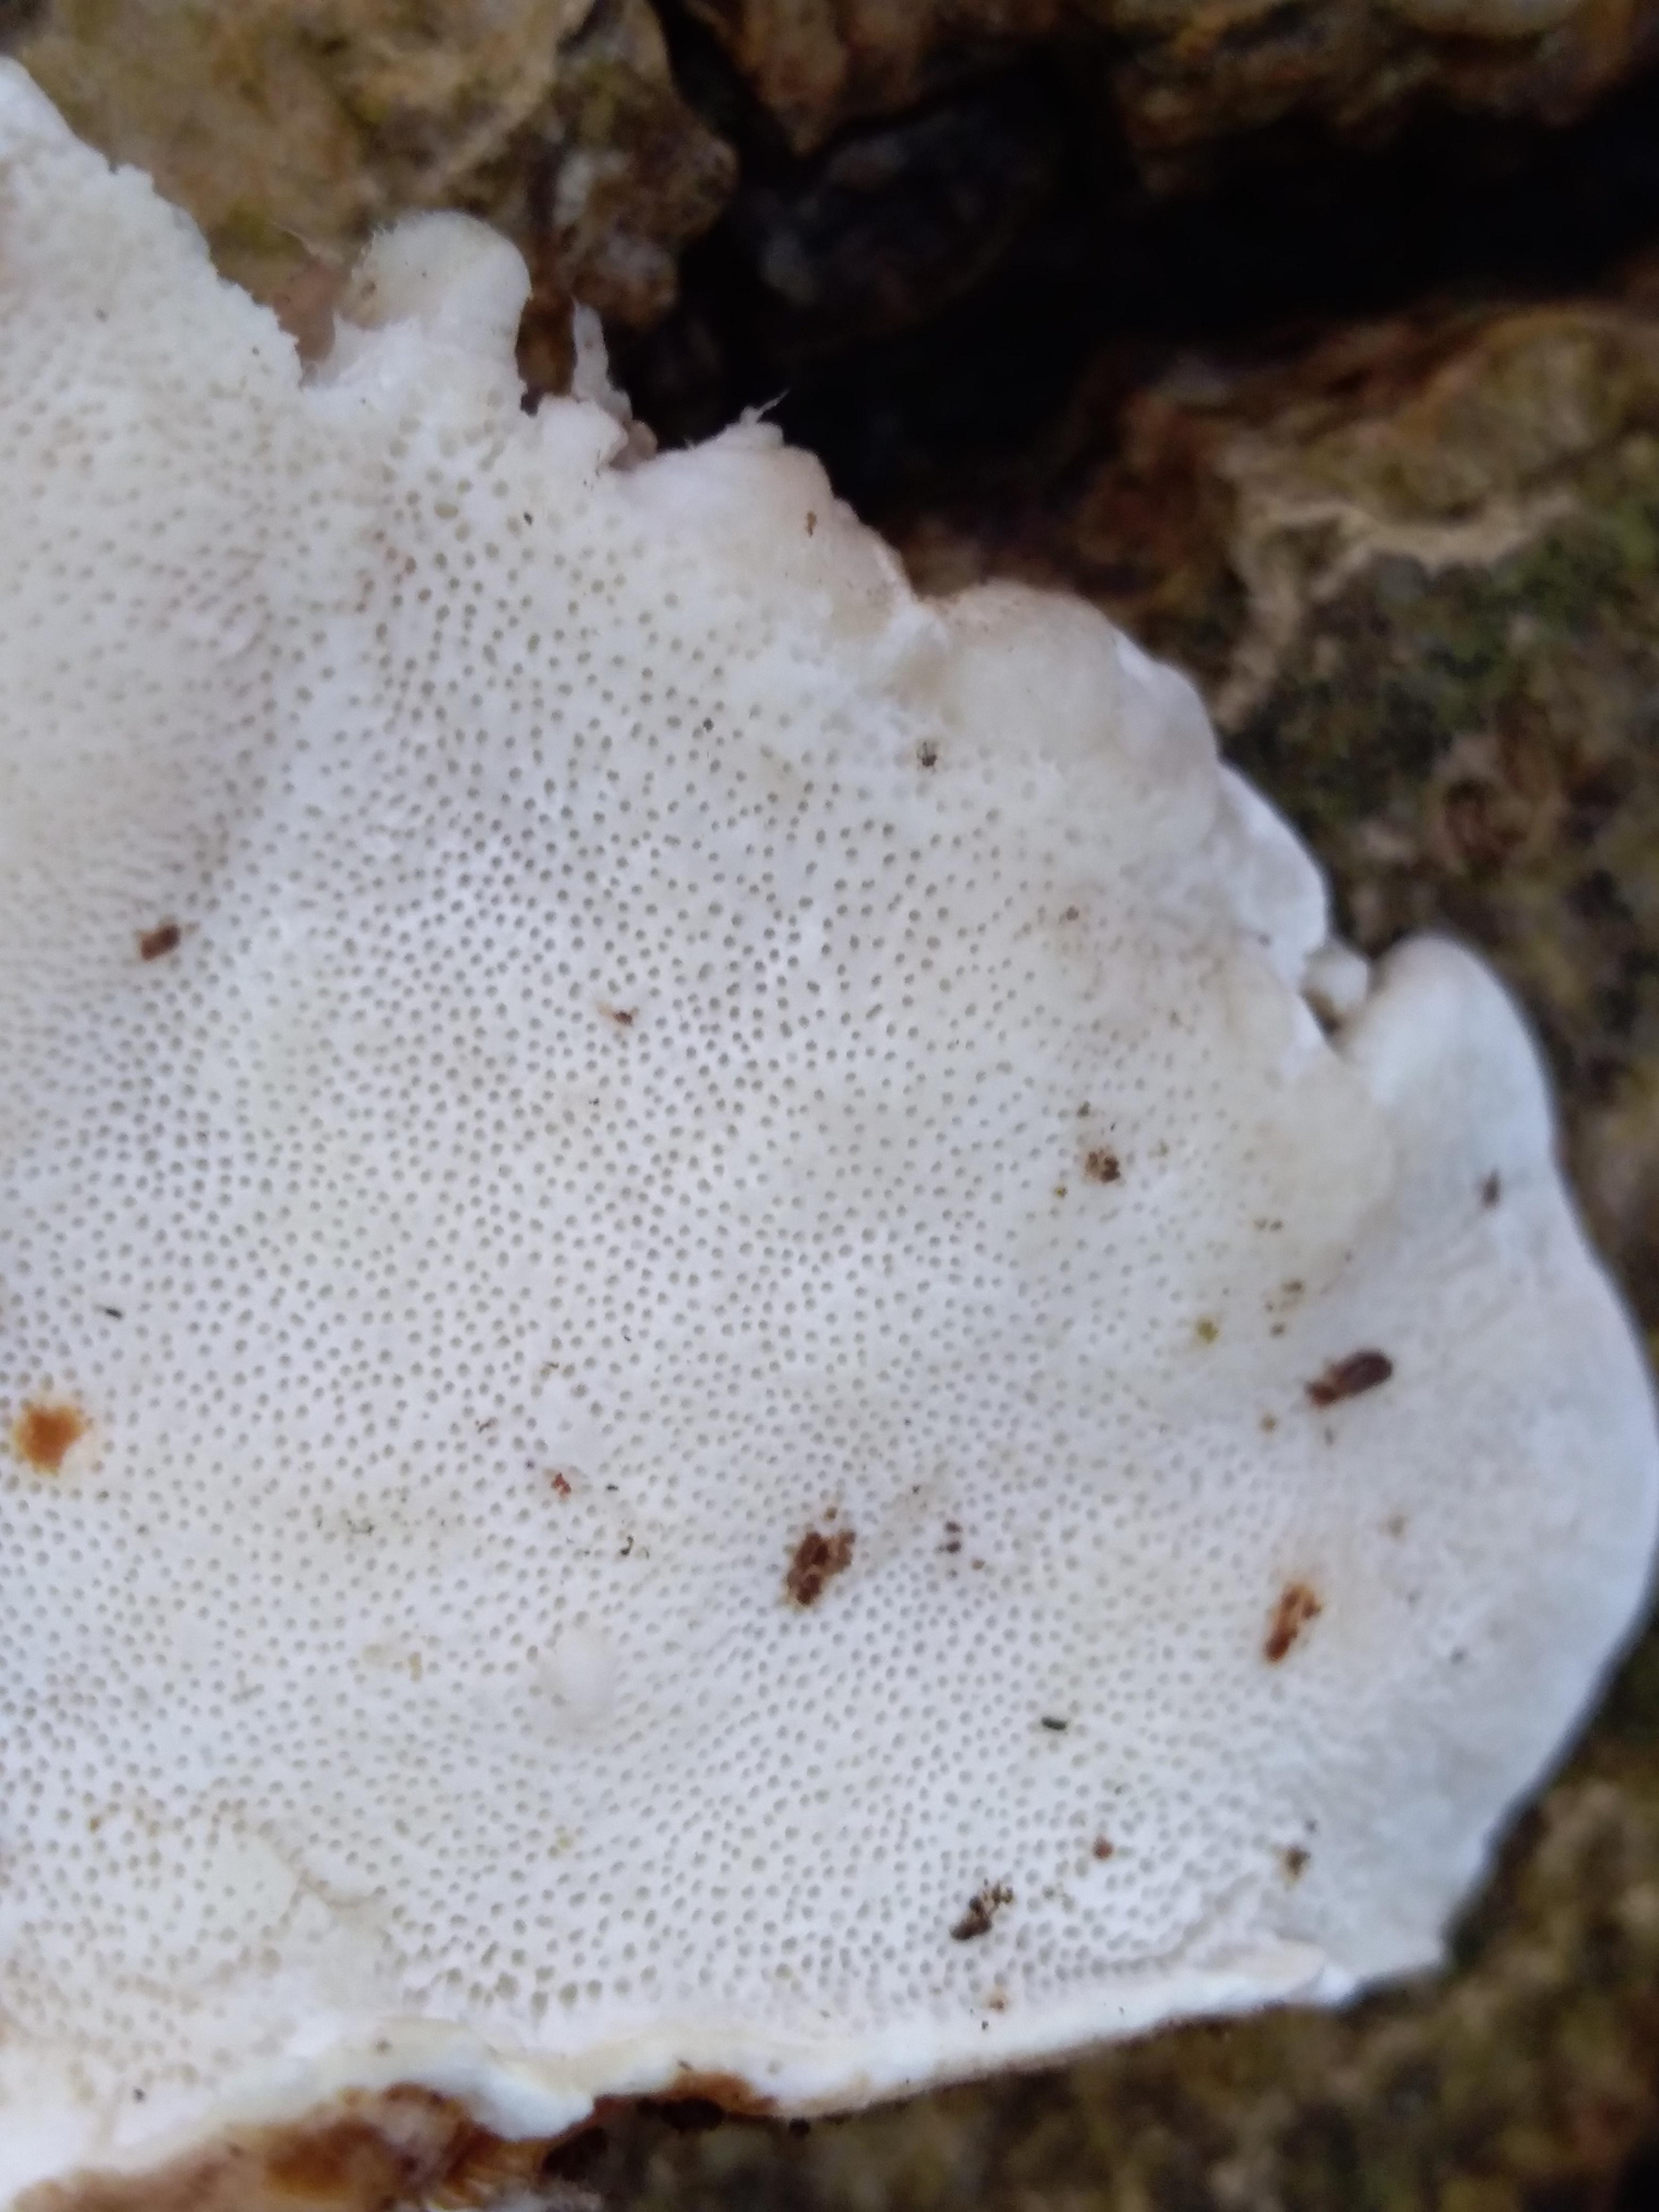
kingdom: Fungi
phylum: Basidiomycota
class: Agaricomycetes
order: Polyporales
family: Polyporaceae
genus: Trametes
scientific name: Trametes versicolor
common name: broget læderporesvamp
